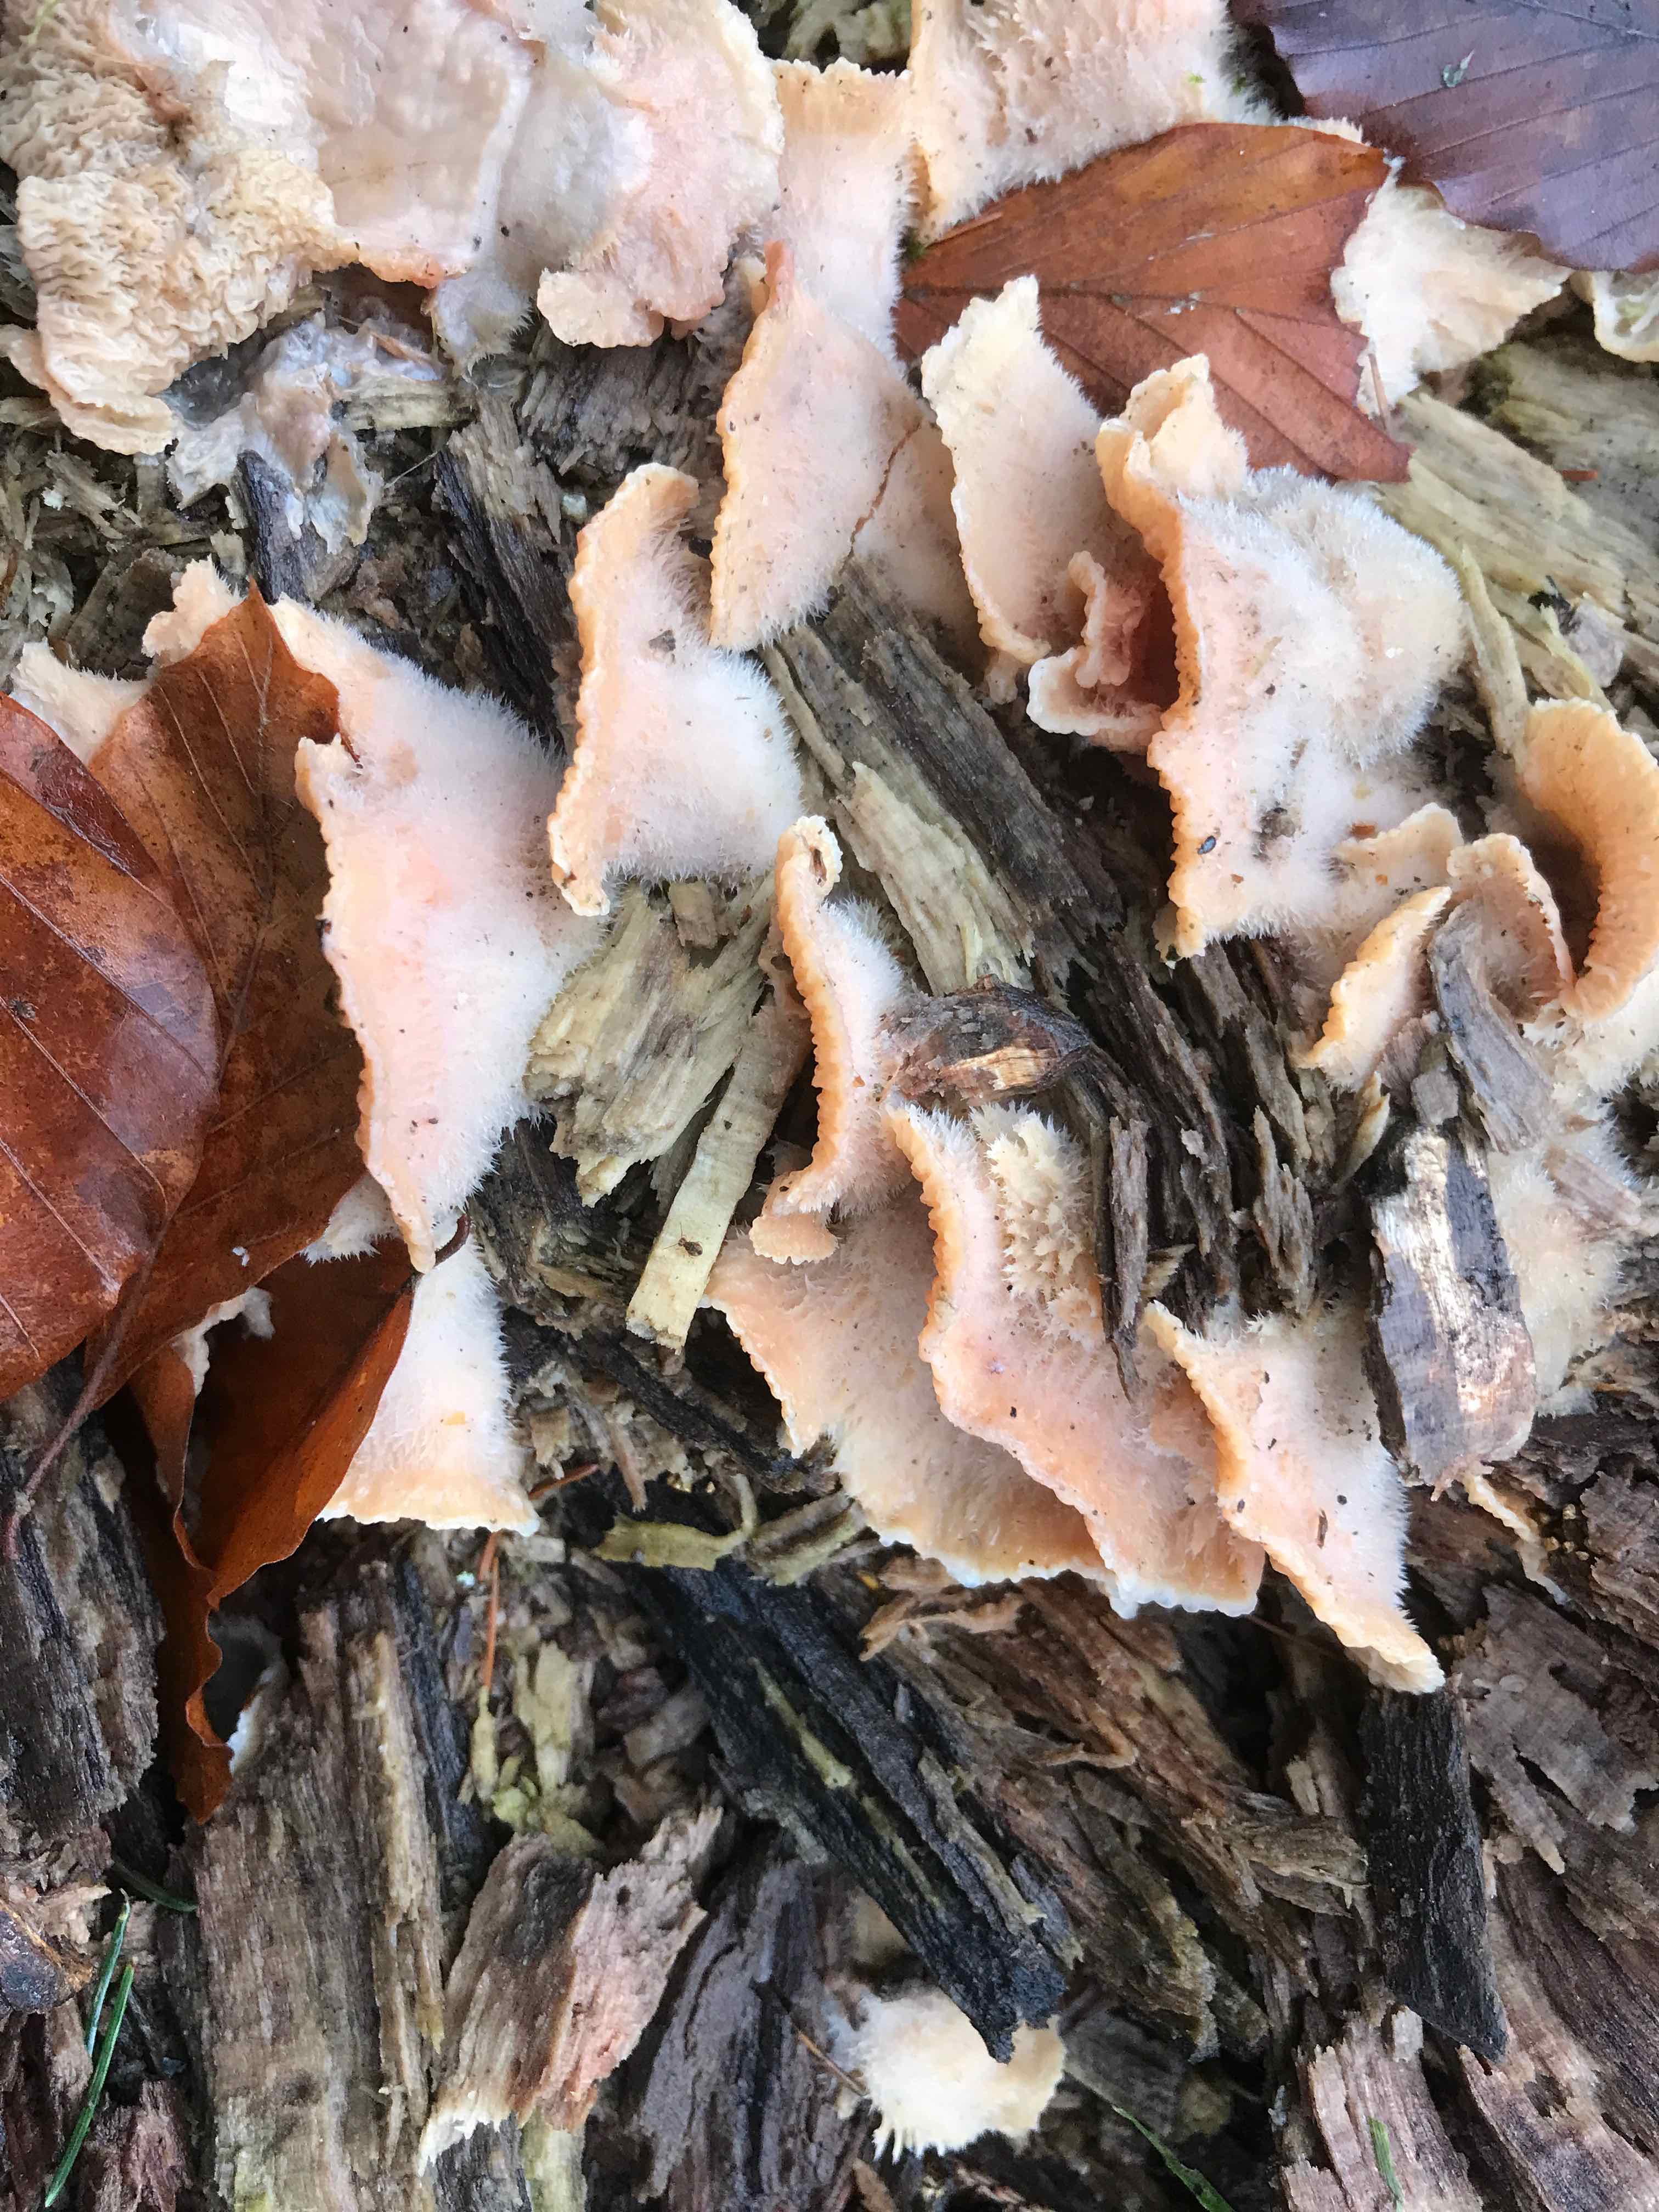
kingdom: Fungi
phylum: Basidiomycota
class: Agaricomycetes
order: Polyporales
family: Meruliaceae
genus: Phlebia
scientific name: Phlebia tremellosa
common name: bævrende åresvamp
